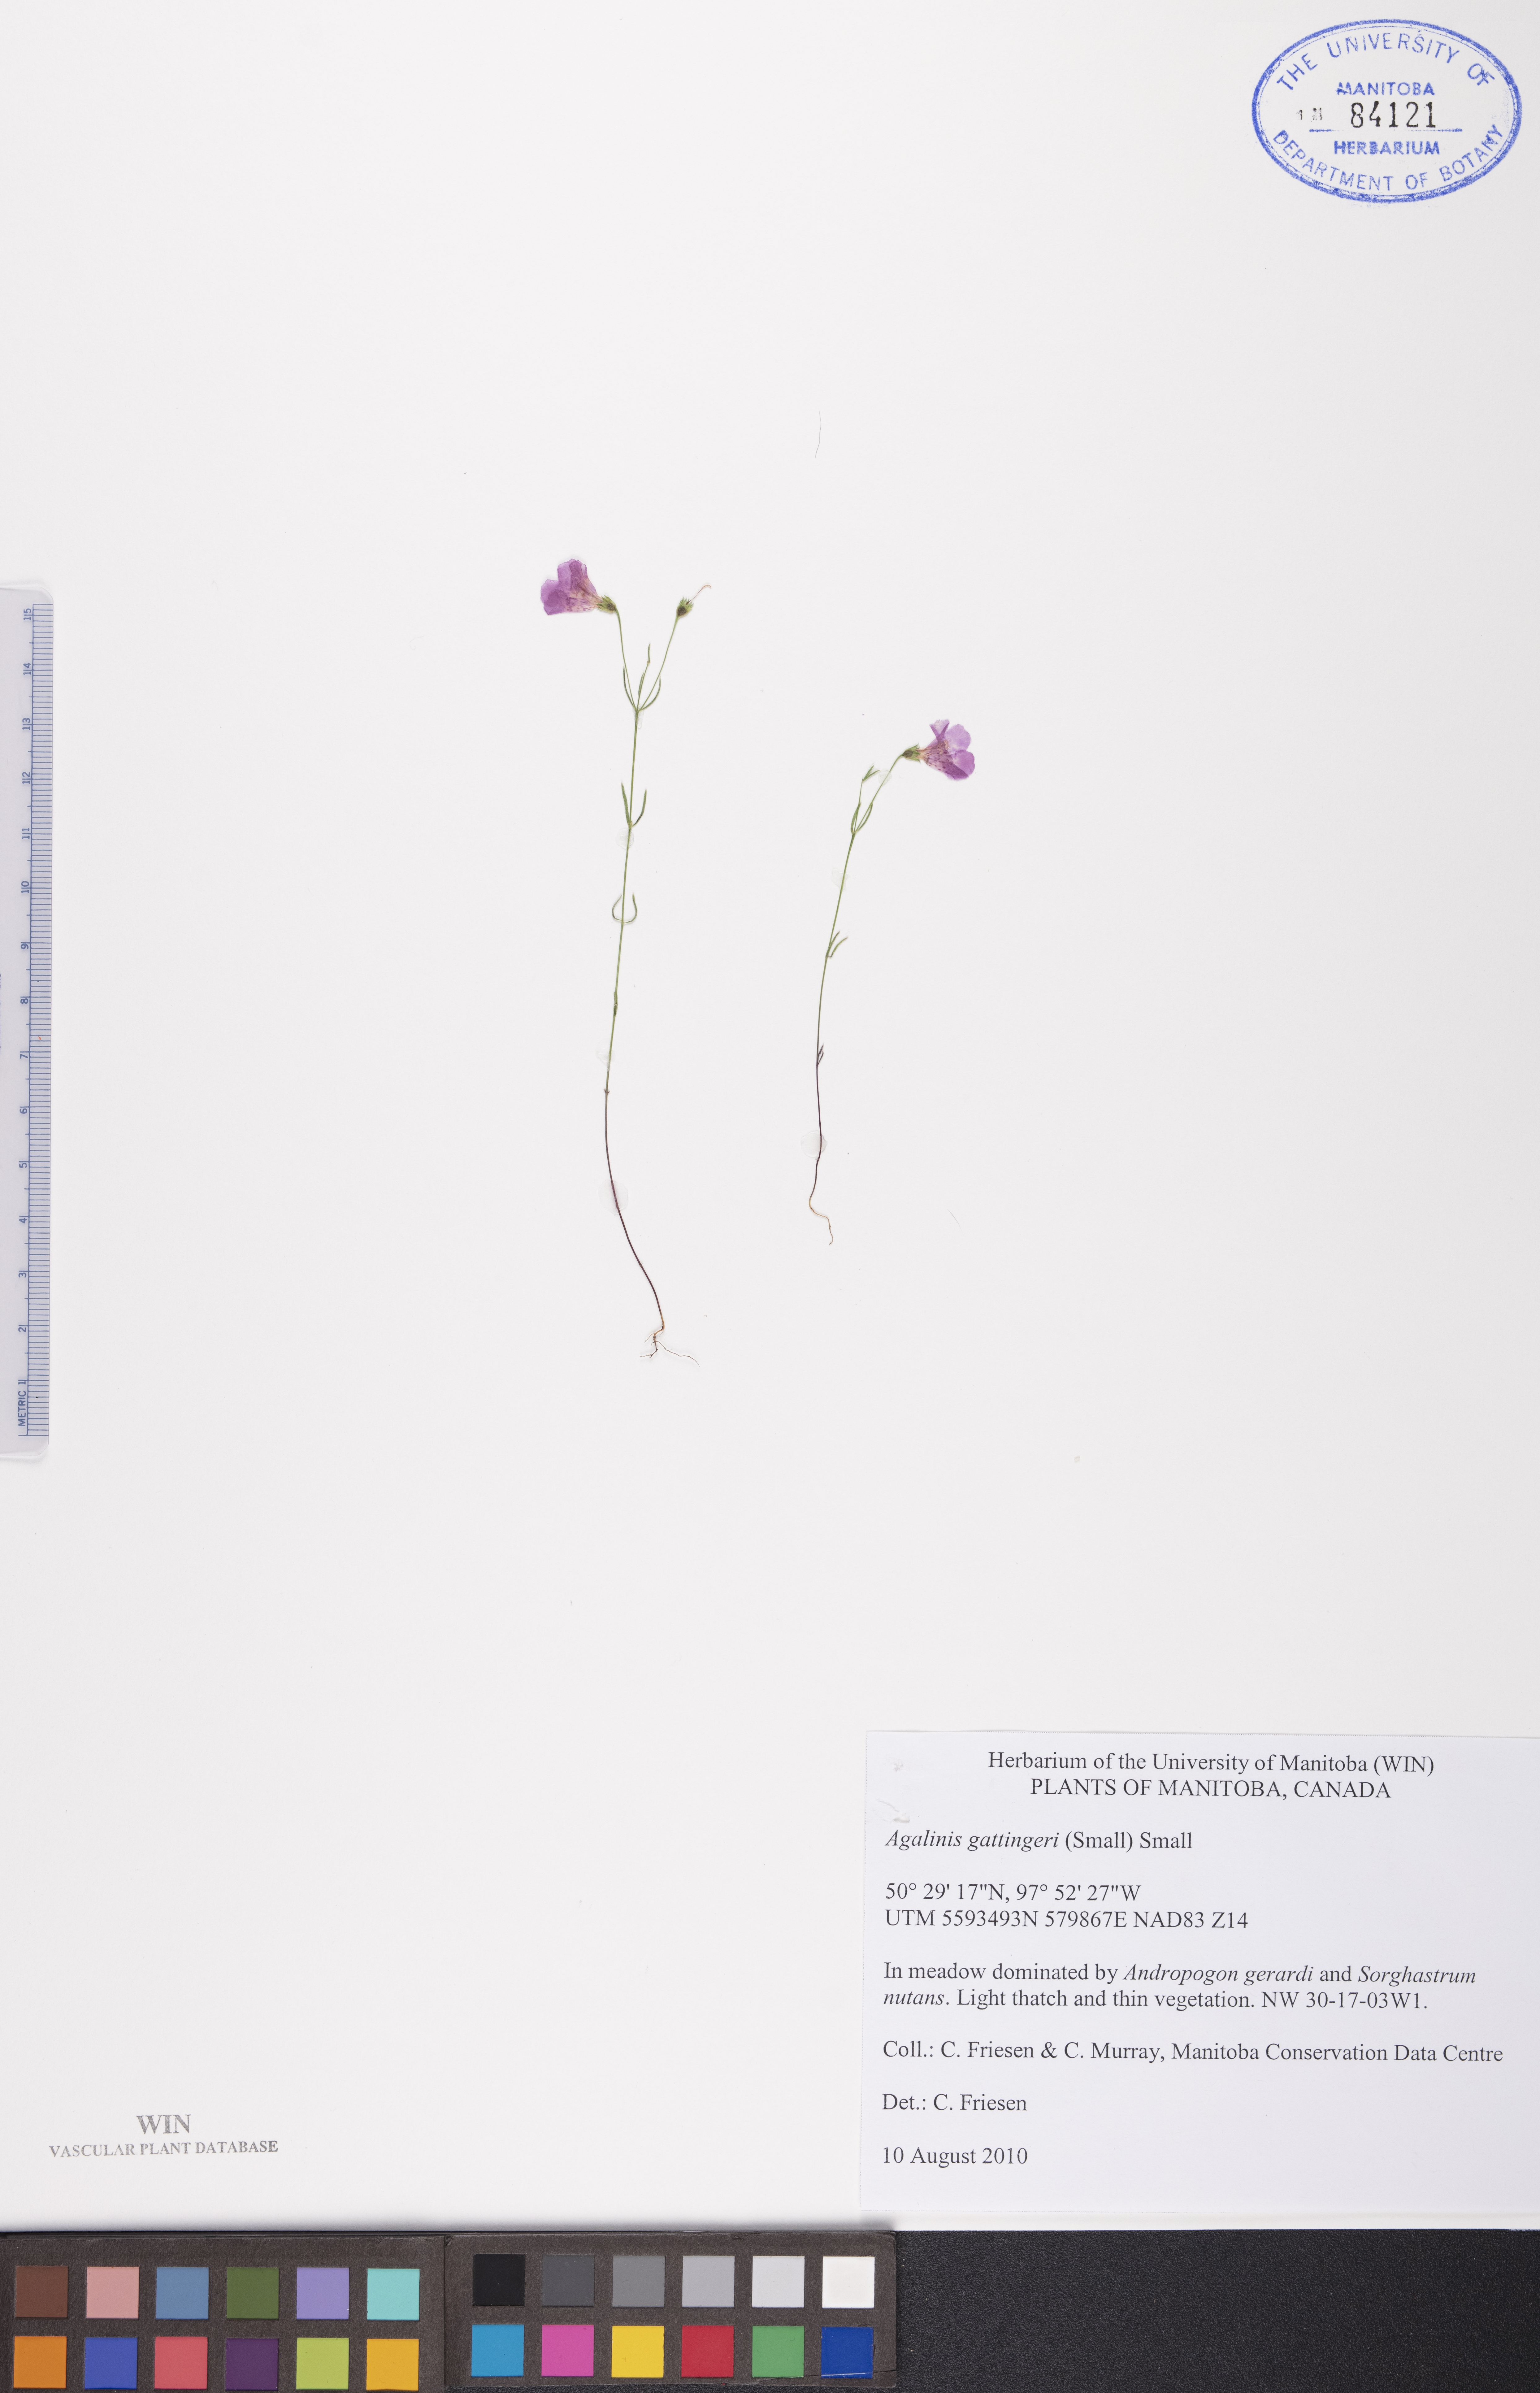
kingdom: Plantae
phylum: Tracheophyta
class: Magnoliopsida
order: Lamiales
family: Orobanchaceae
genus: Agalinis
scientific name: Agalinis gattingeri
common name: Gattinger's agalinis
